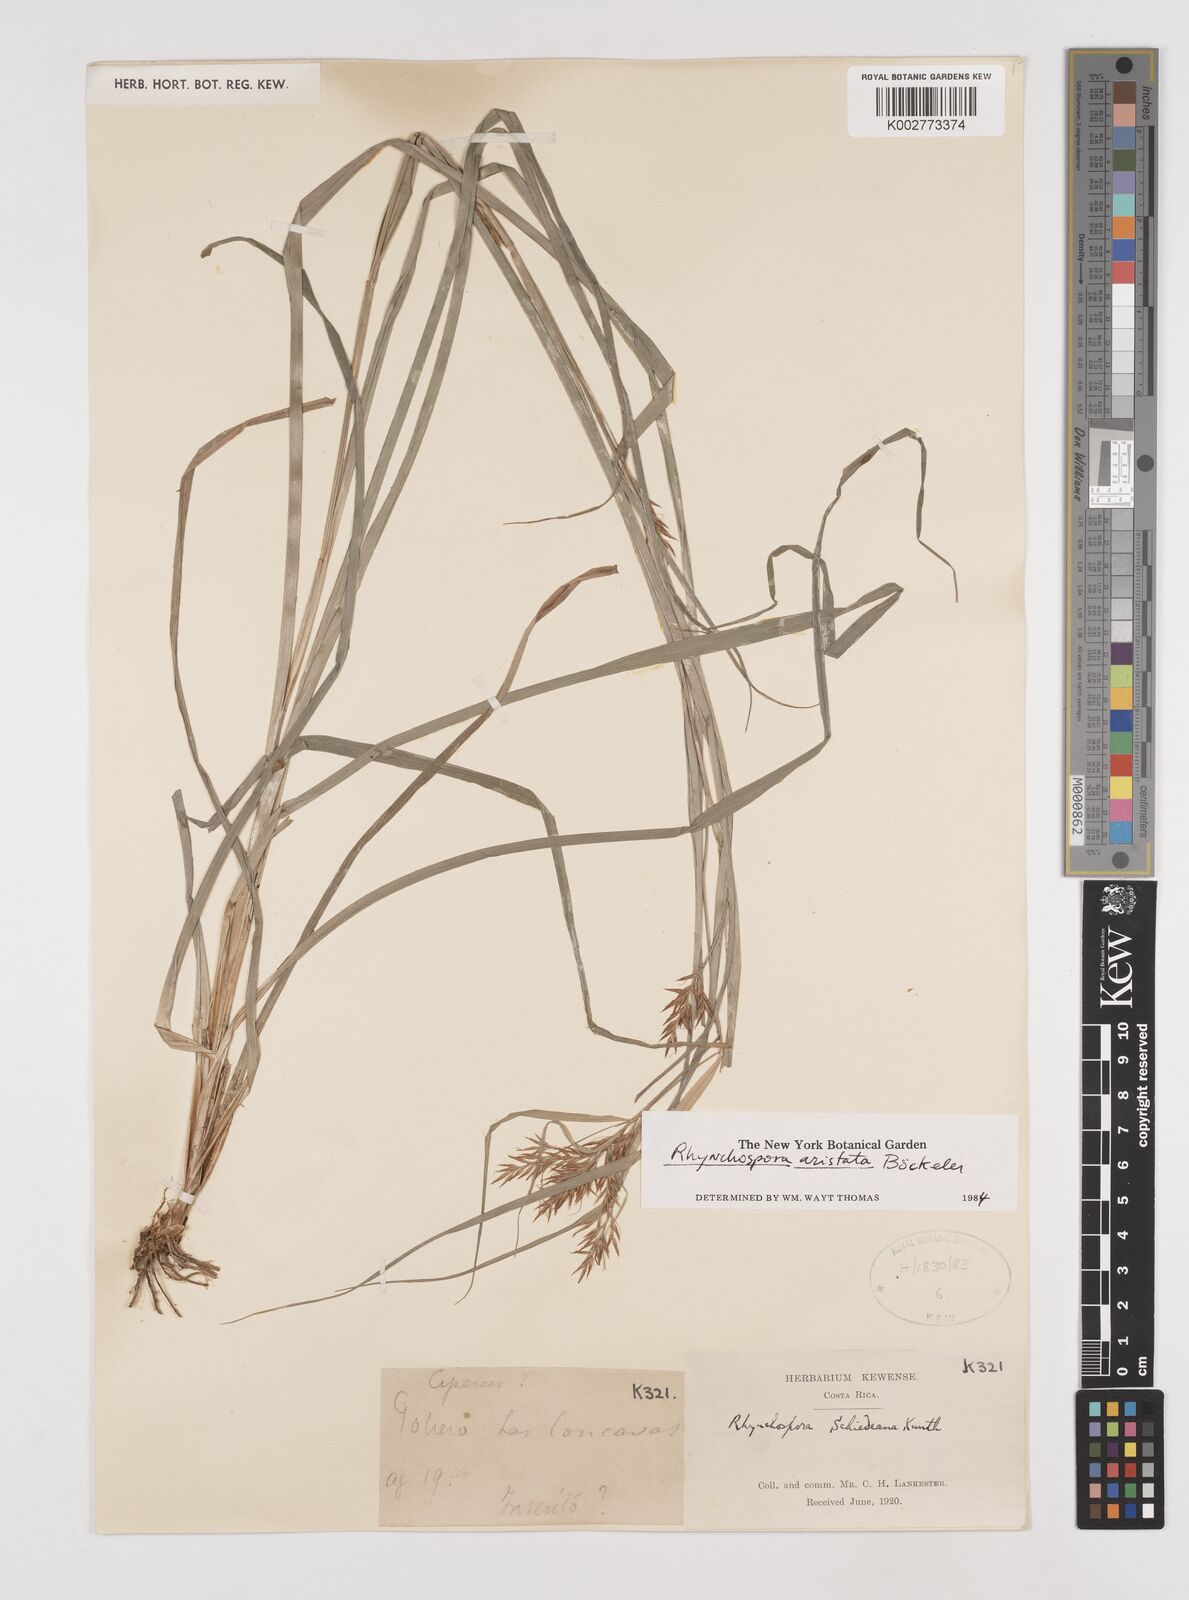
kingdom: Plantae
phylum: Tracheophyta
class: Liliopsida
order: Poales
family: Cyperaceae
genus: Rhynchospora
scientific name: Rhynchospora aristata
